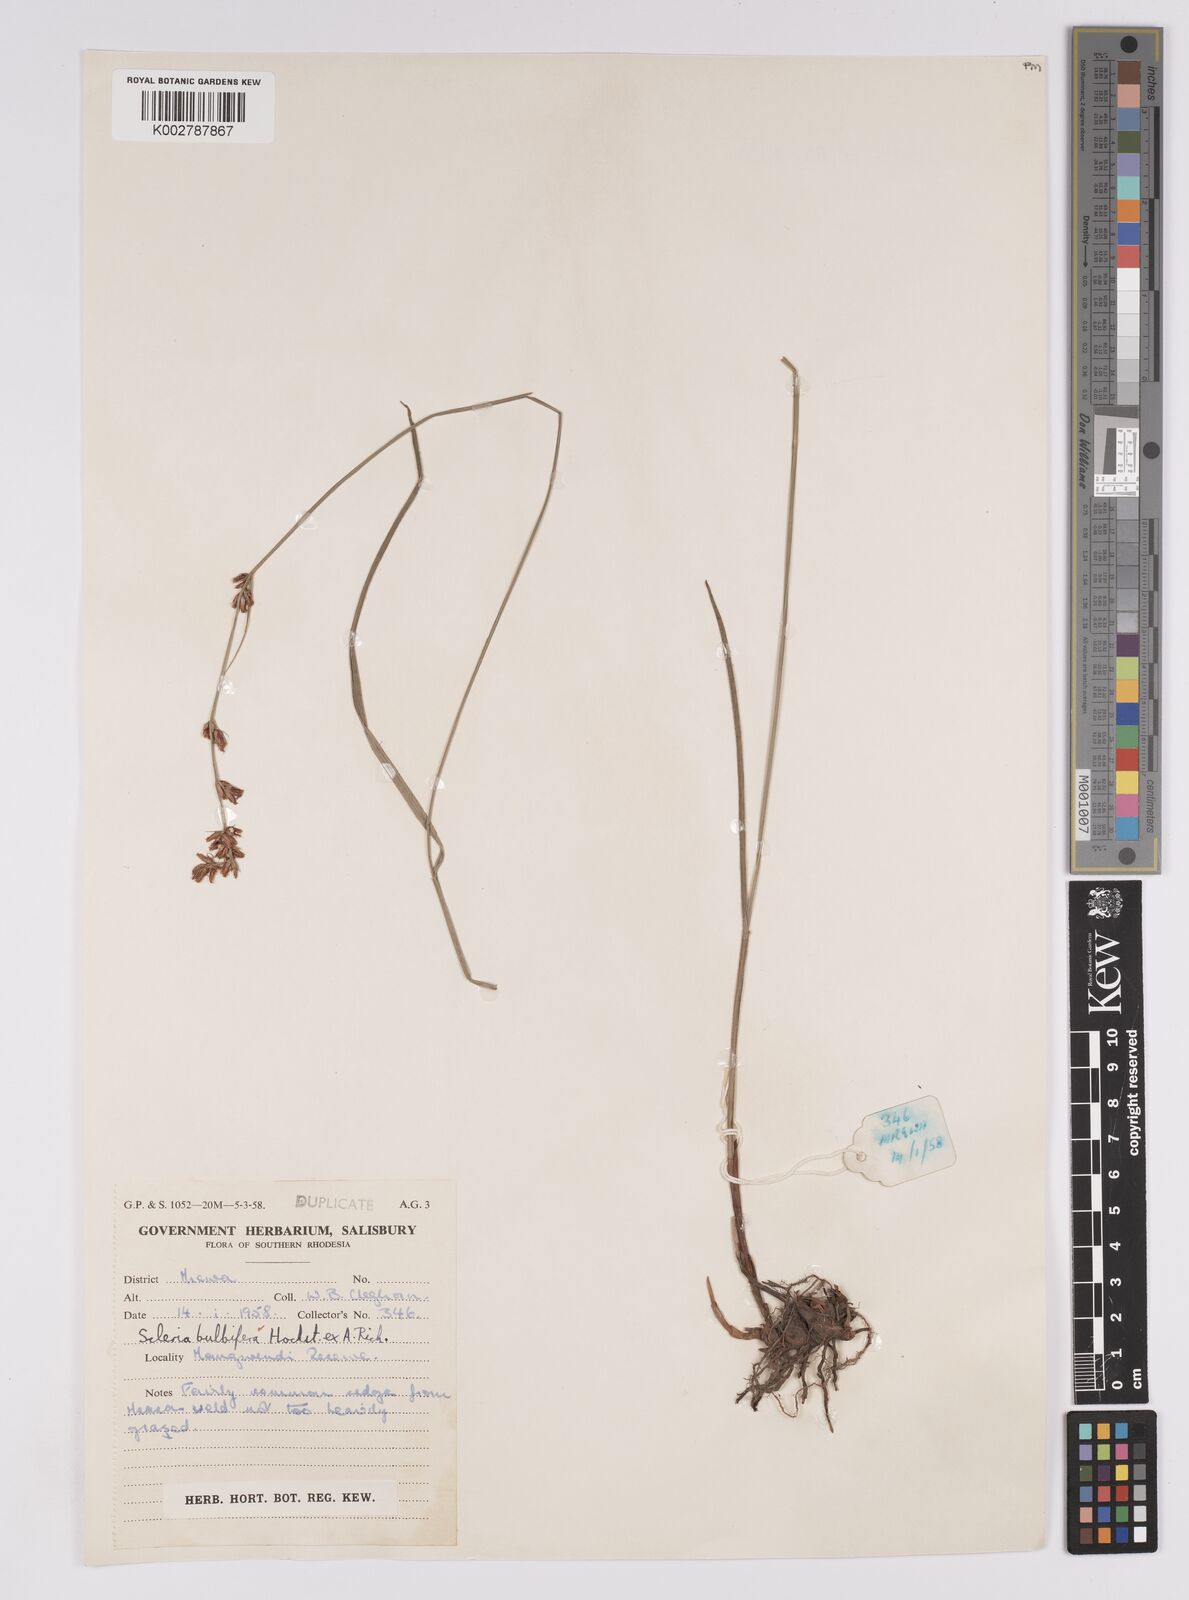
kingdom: Plantae
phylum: Tracheophyta
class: Liliopsida
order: Poales
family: Cyperaceae
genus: Scleria
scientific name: Scleria bulbifera
